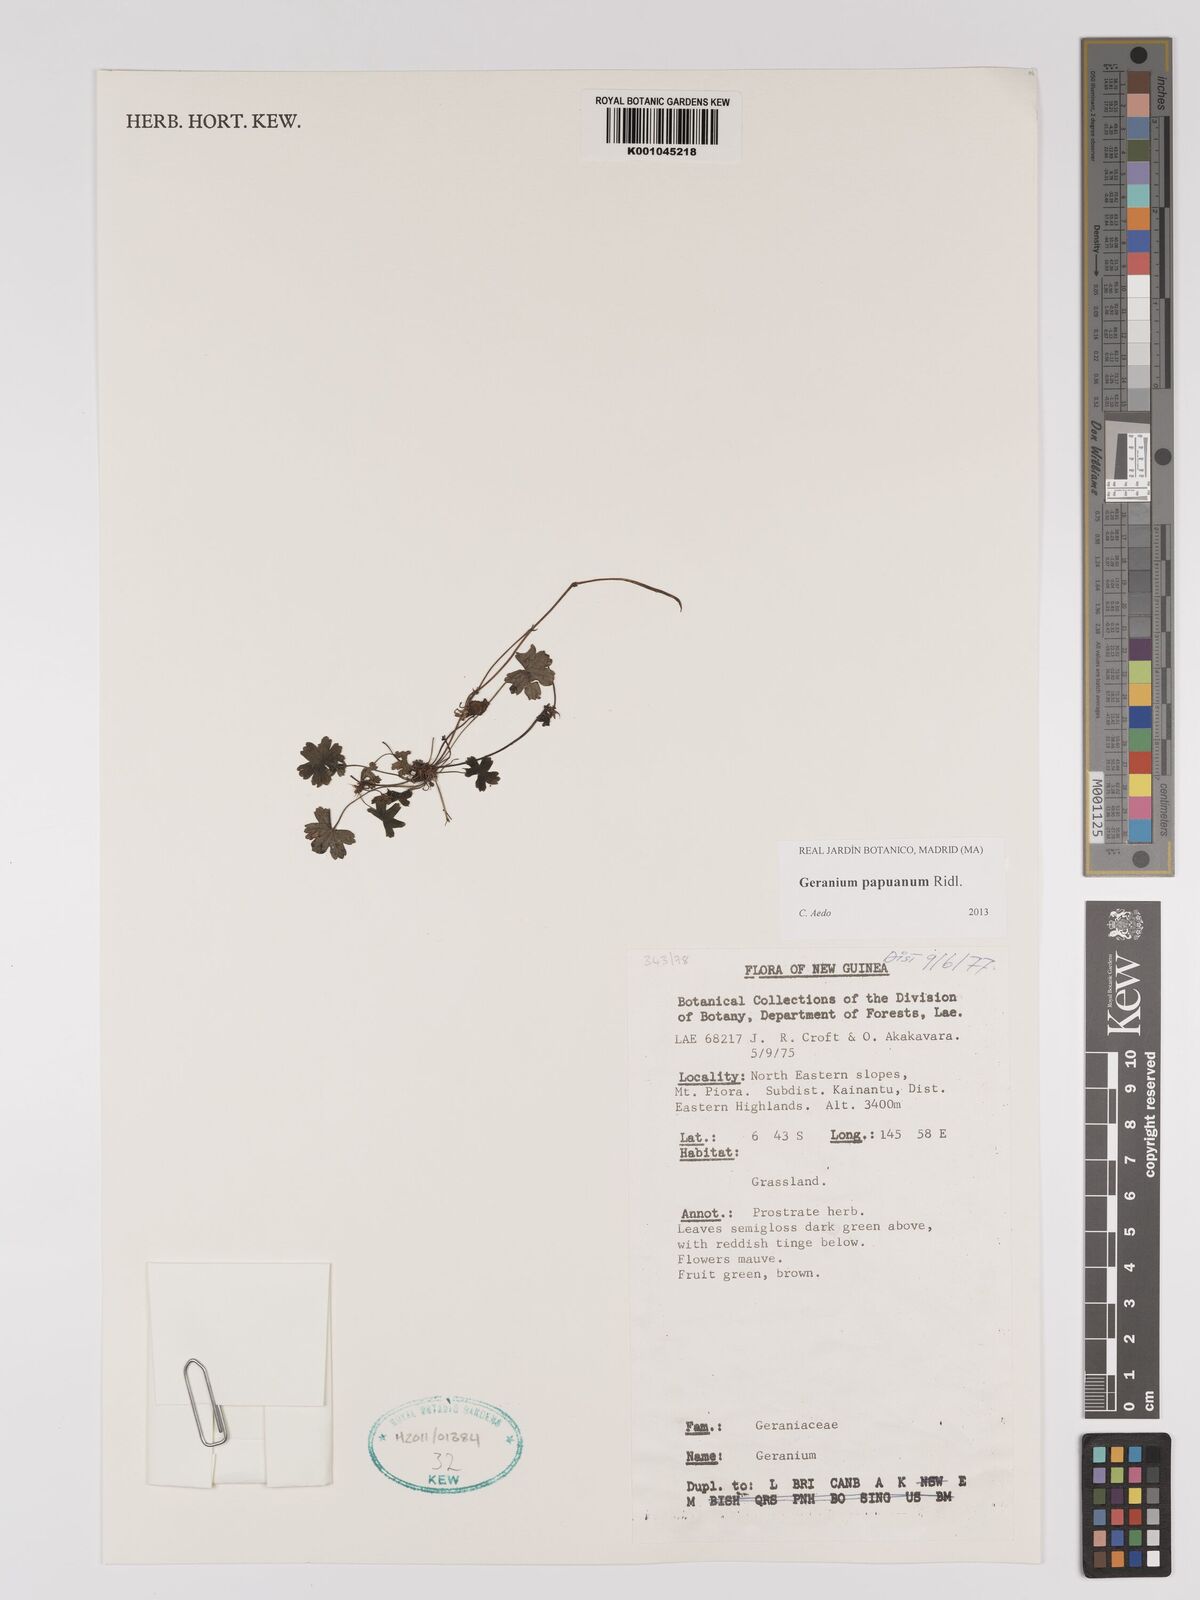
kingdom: Plantae
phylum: Tracheophyta
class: Magnoliopsida
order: Geraniales
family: Geraniaceae
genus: Geranium
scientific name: Geranium papuanum
